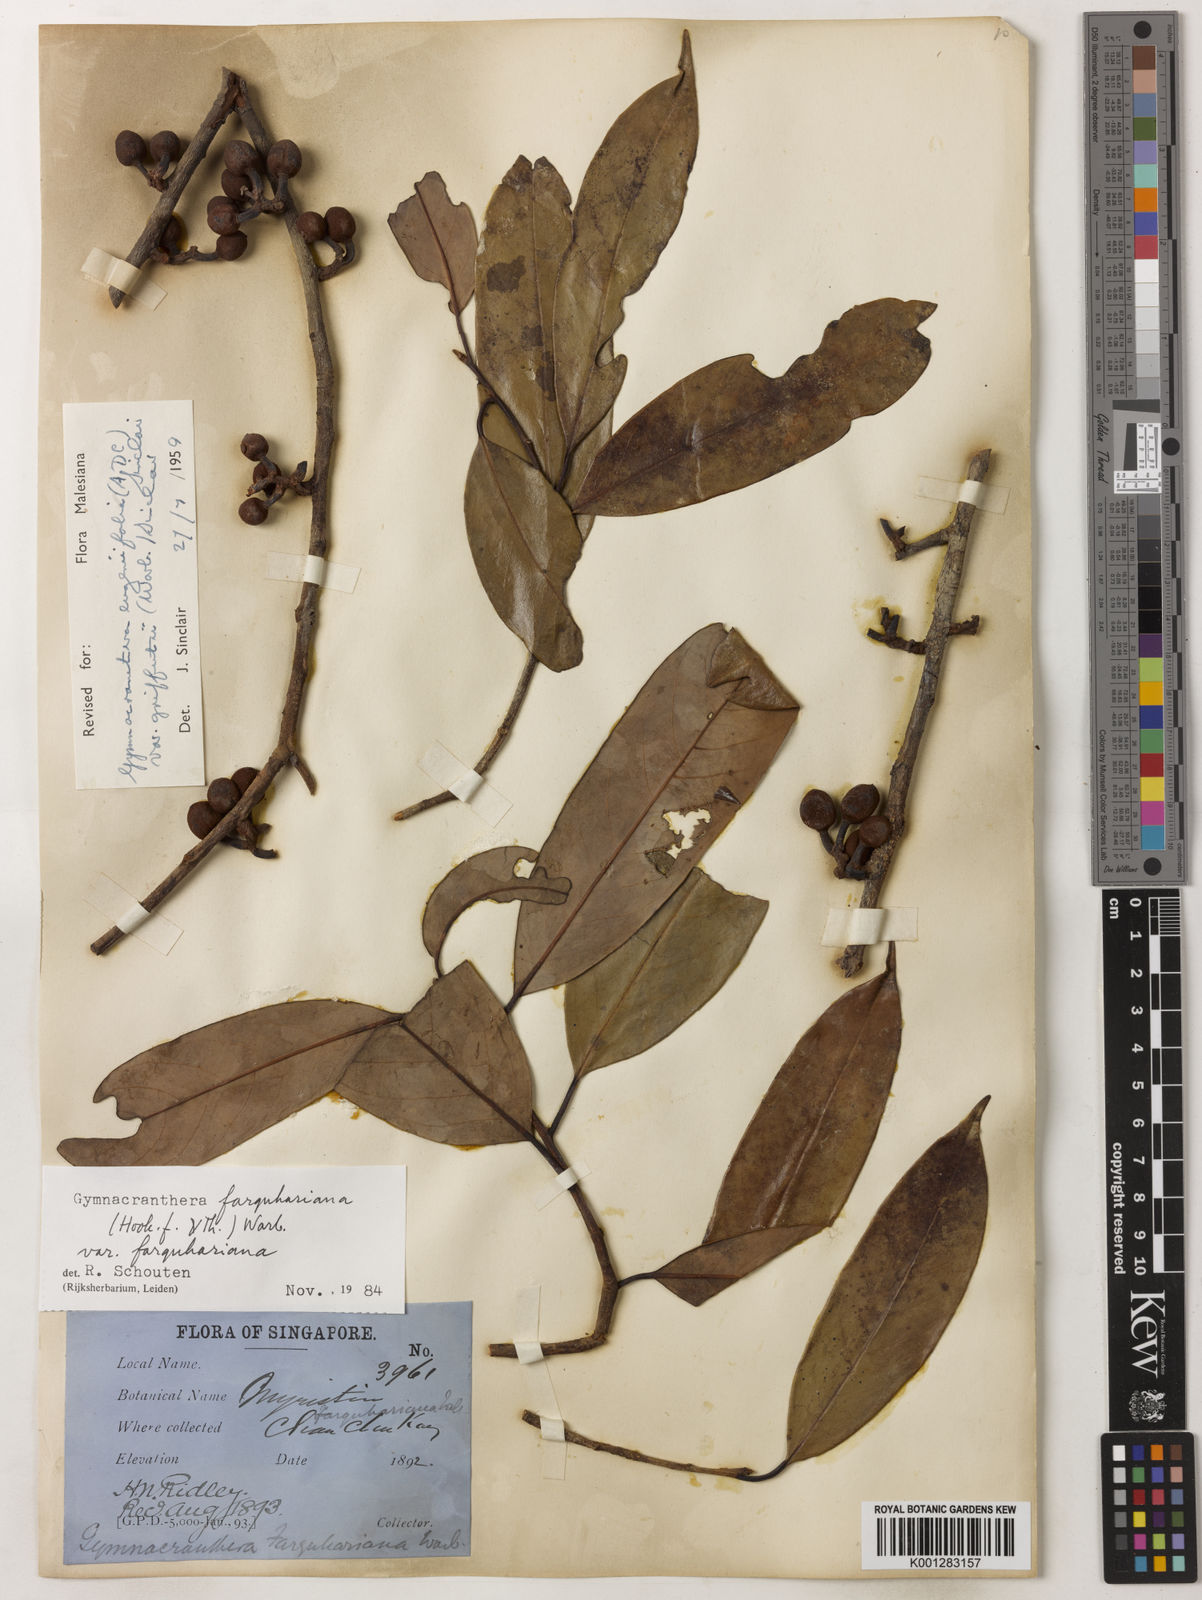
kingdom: Plantae
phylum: Tracheophyta
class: Magnoliopsida
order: Magnoliales
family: Myristicaceae
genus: Gymnacranthera
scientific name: Gymnacranthera farquhariana
